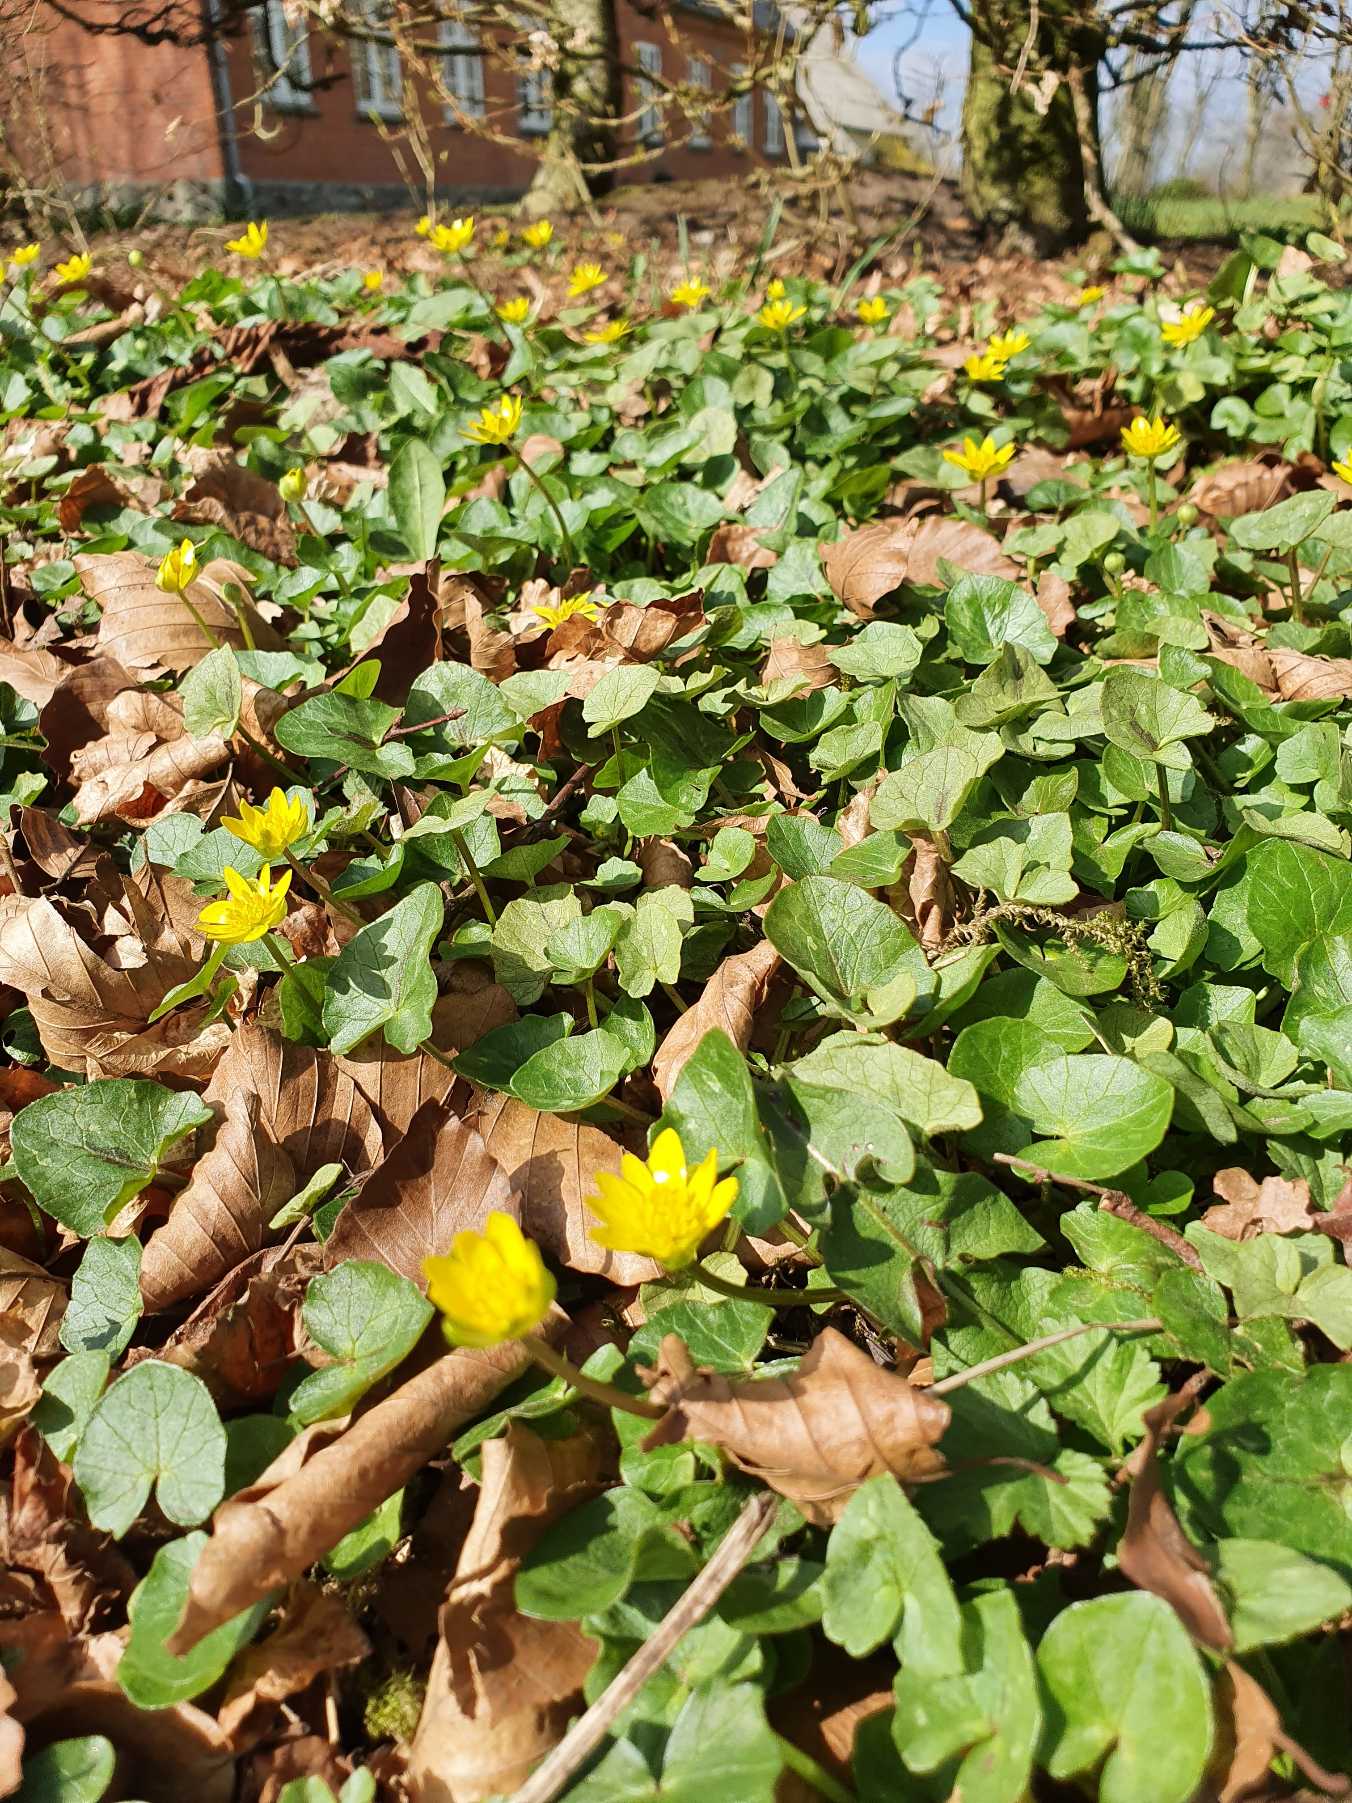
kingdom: Plantae
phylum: Tracheophyta
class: Magnoliopsida
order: Ranunculales
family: Ranunculaceae
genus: Ficaria
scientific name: Ficaria verna
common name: Vorterod
